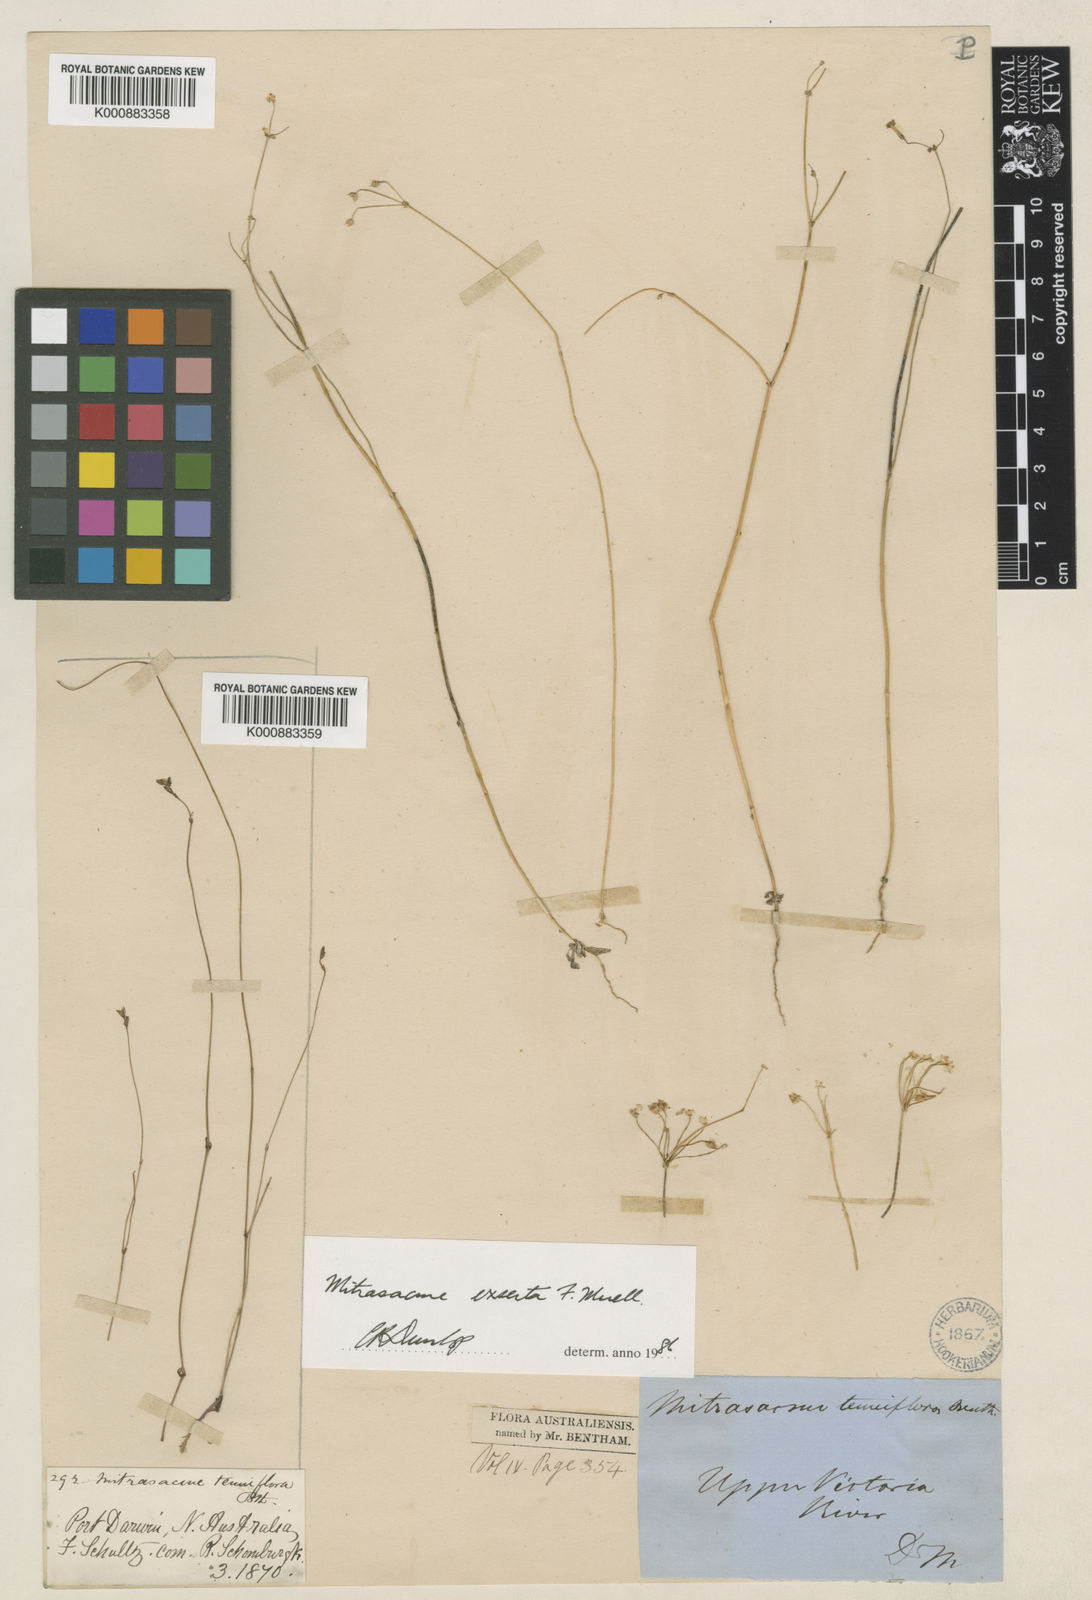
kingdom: Plantae
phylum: Tracheophyta
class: Magnoliopsida
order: Gentianales
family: Loganiaceae
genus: Mitrasacme
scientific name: Mitrasacme exserta
